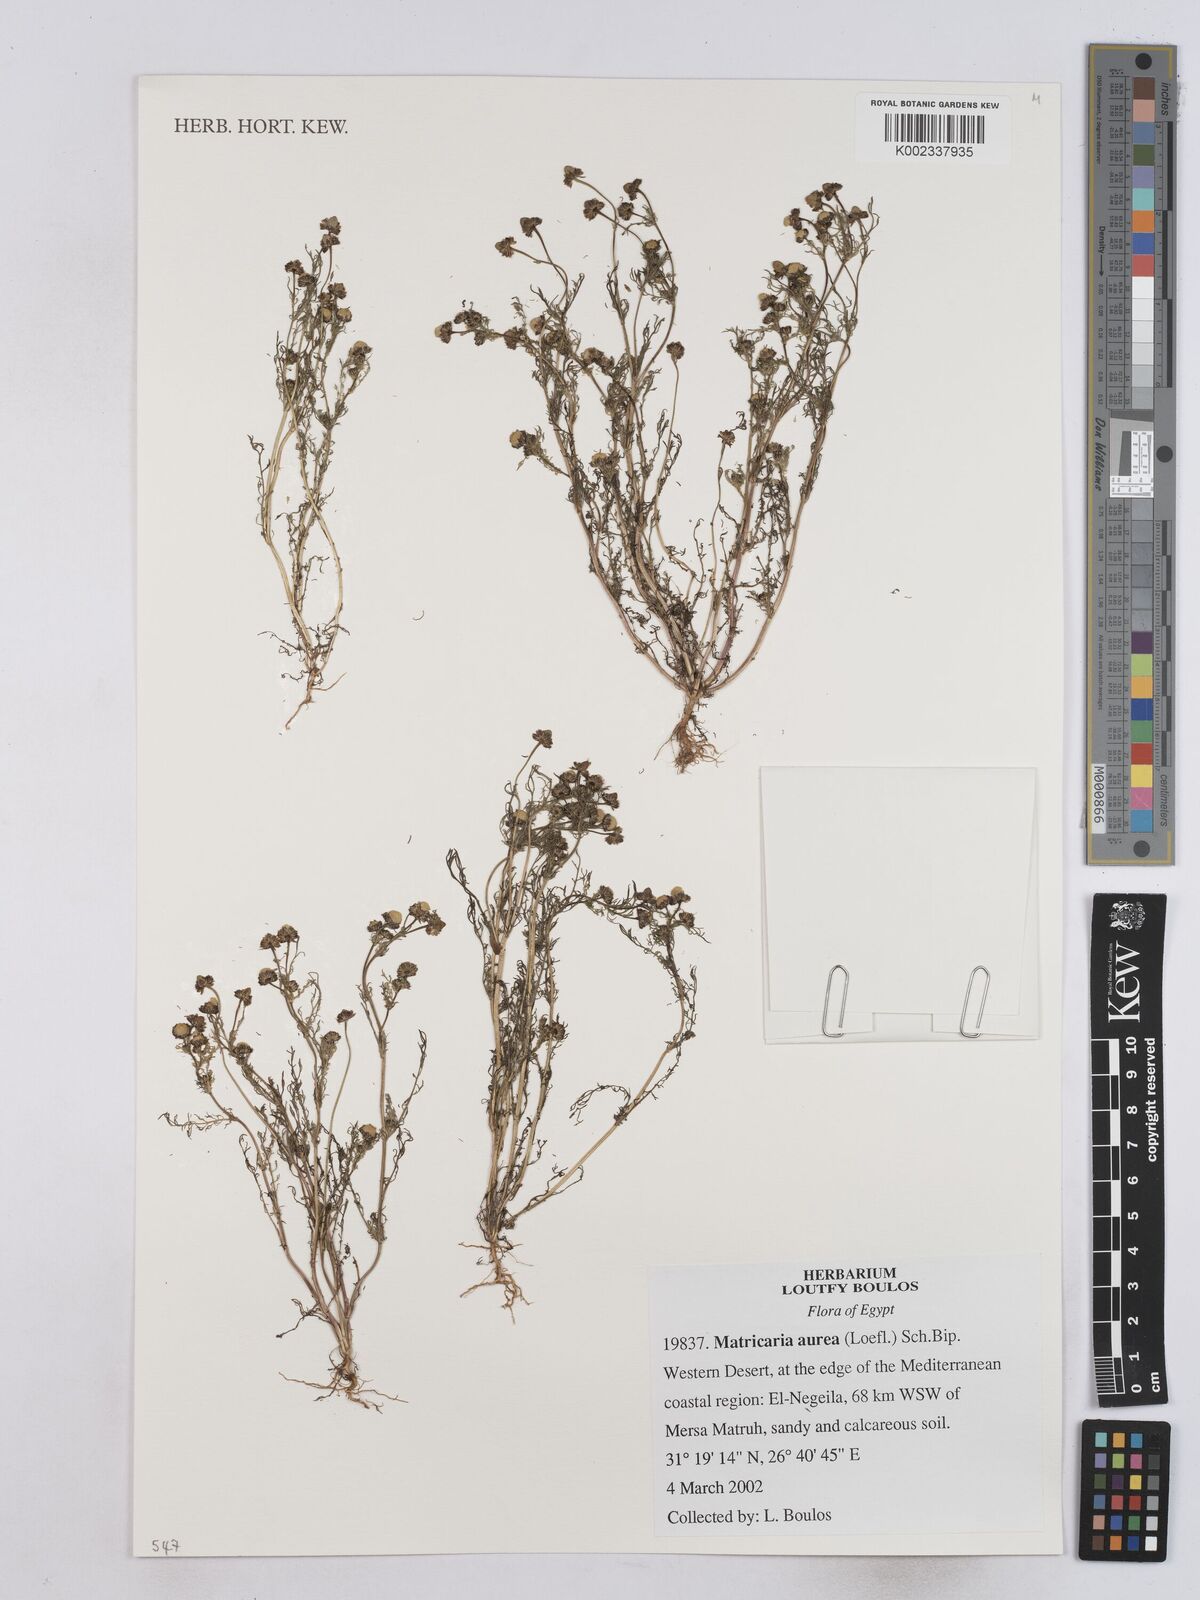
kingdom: Plantae
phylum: Tracheophyta
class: Magnoliopsida
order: Asterales
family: Asteraceae
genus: Matricaria
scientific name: Matricaria aurea
